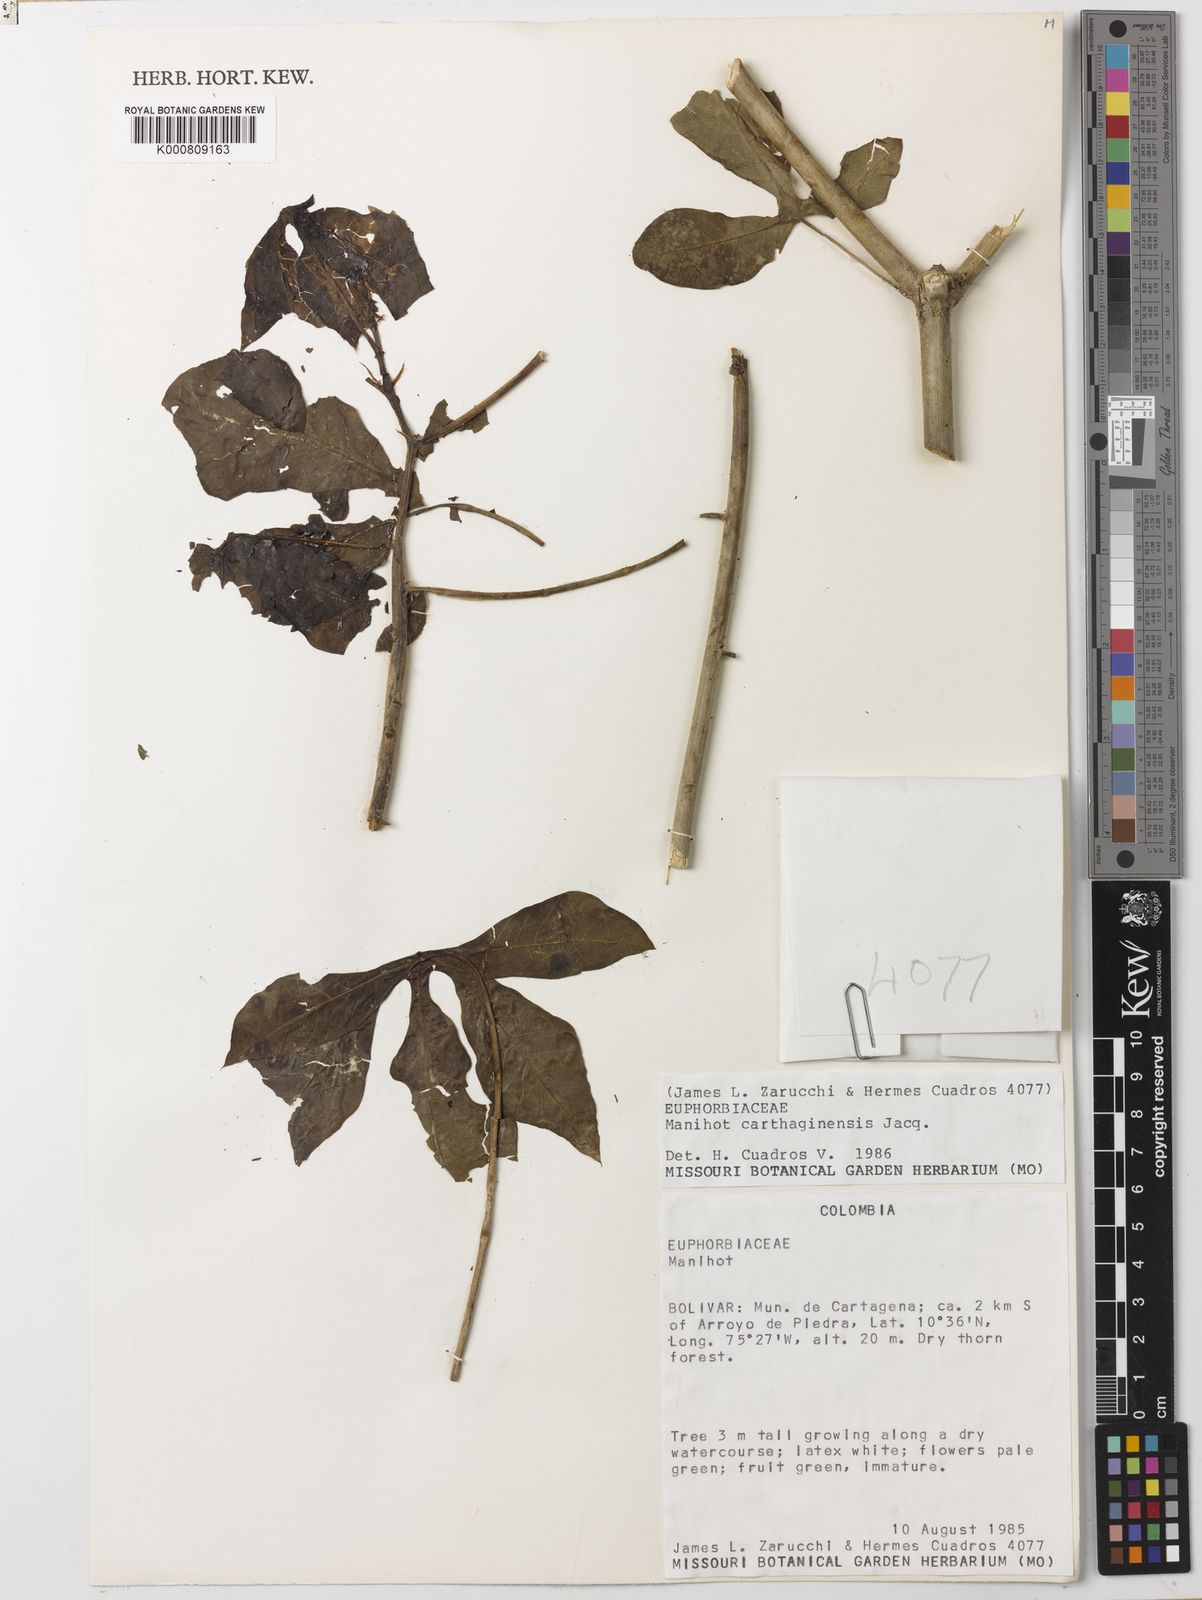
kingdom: Plantae
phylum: Tracheophyta
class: Magnoliopsida
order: Malpighiales
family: Euphorbiaceae
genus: Manihot
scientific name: Manihot
